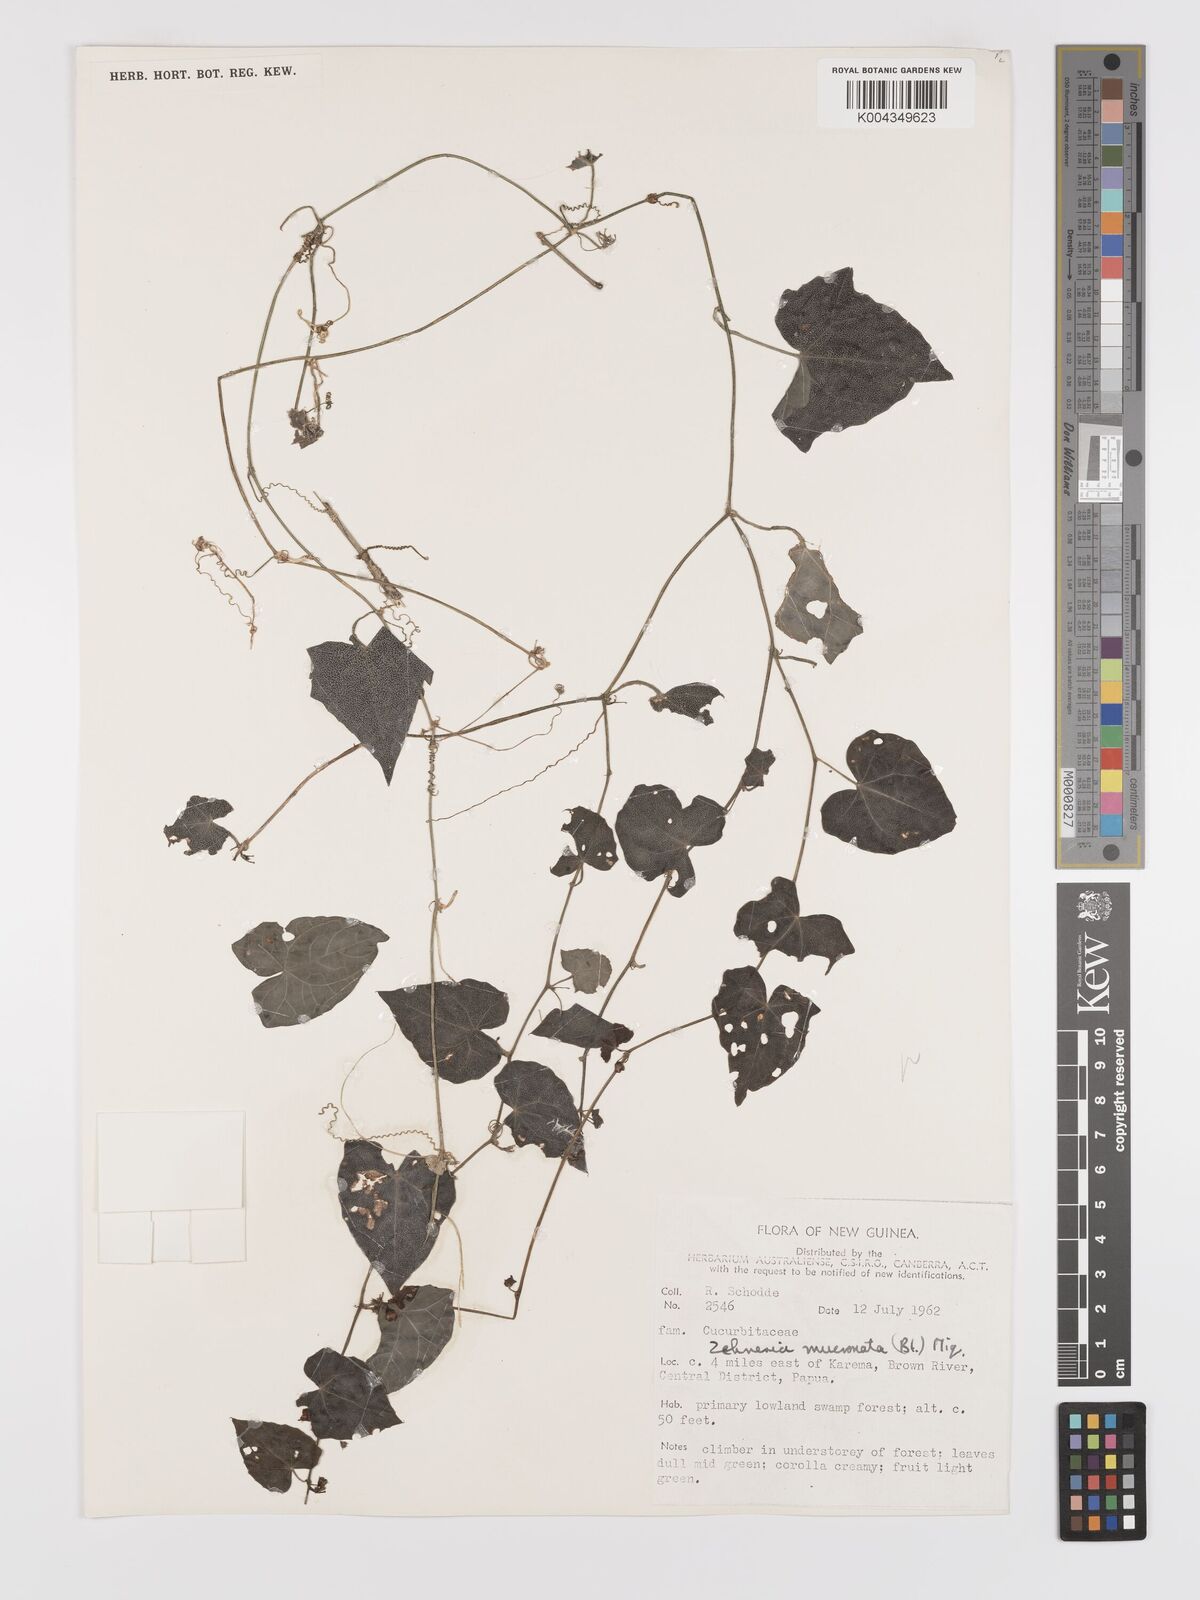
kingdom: Plantae
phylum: Tracheophyta
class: Magnoliopsida
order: Cucurbitales
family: Cucurbitaceae
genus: Zehneria
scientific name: Zehneria
